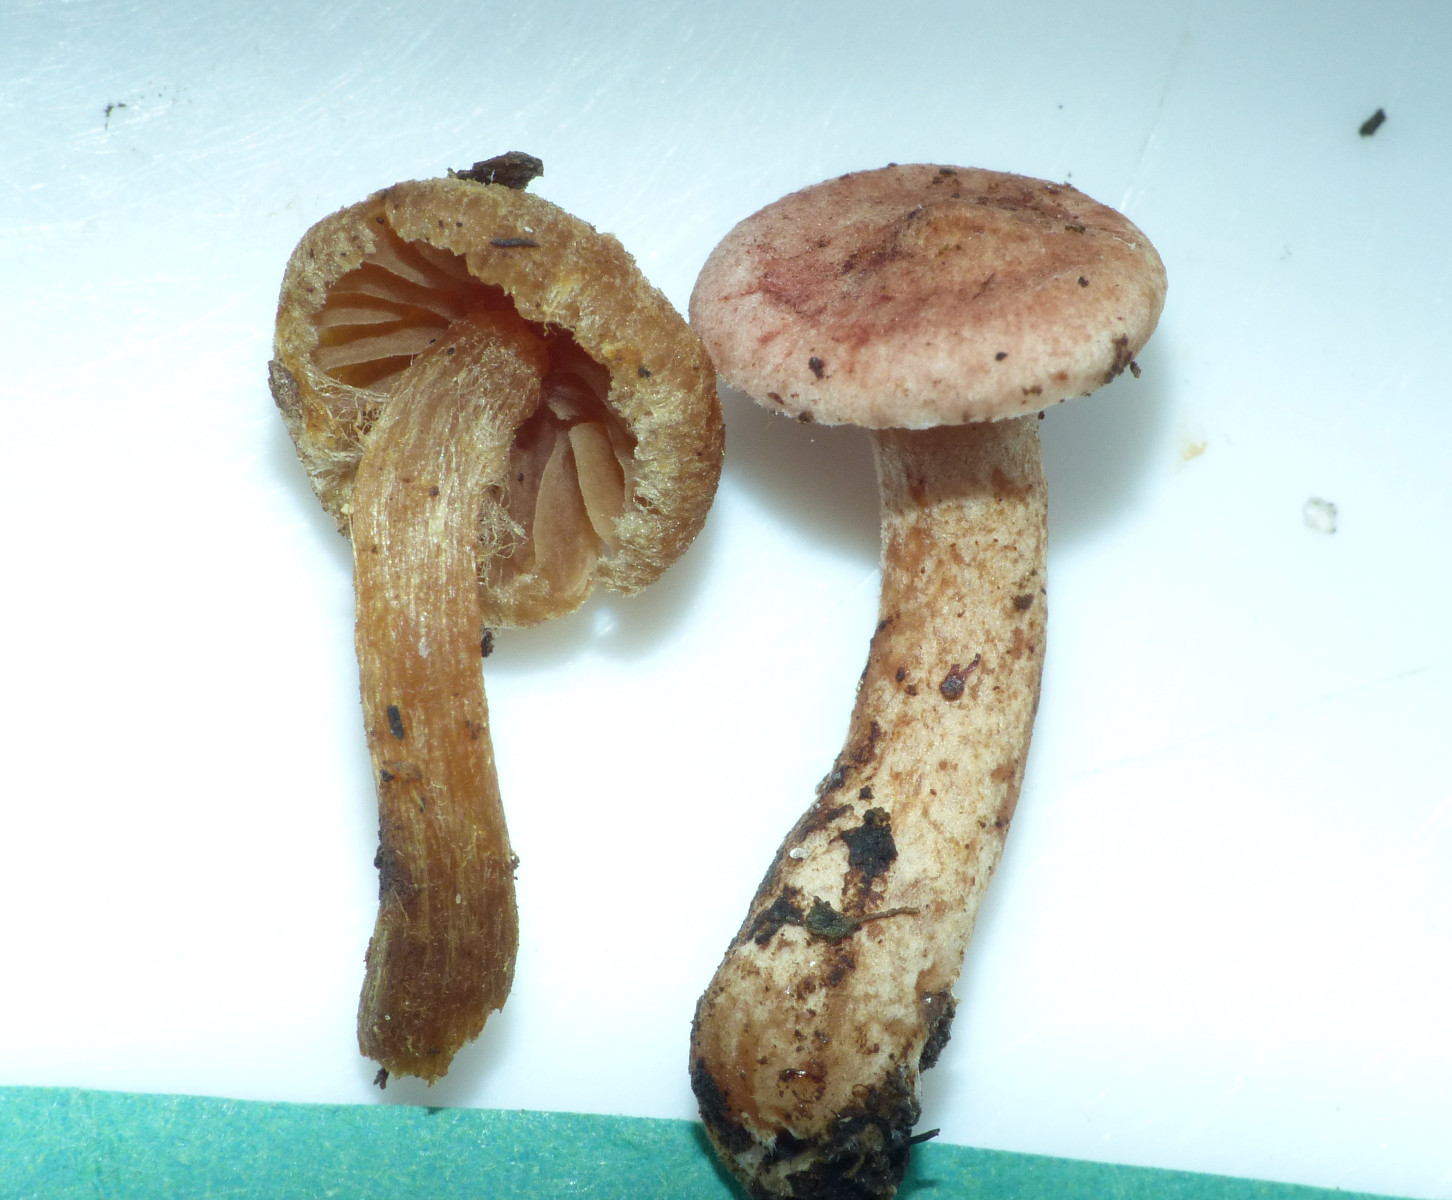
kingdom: Fungi
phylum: Basidiomycota
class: Agaricomycetes
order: Agaricales
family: Cortinariaceae
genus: Cortinarius
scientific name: Cortinarius helvelloides
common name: fjernbladet slørhat
